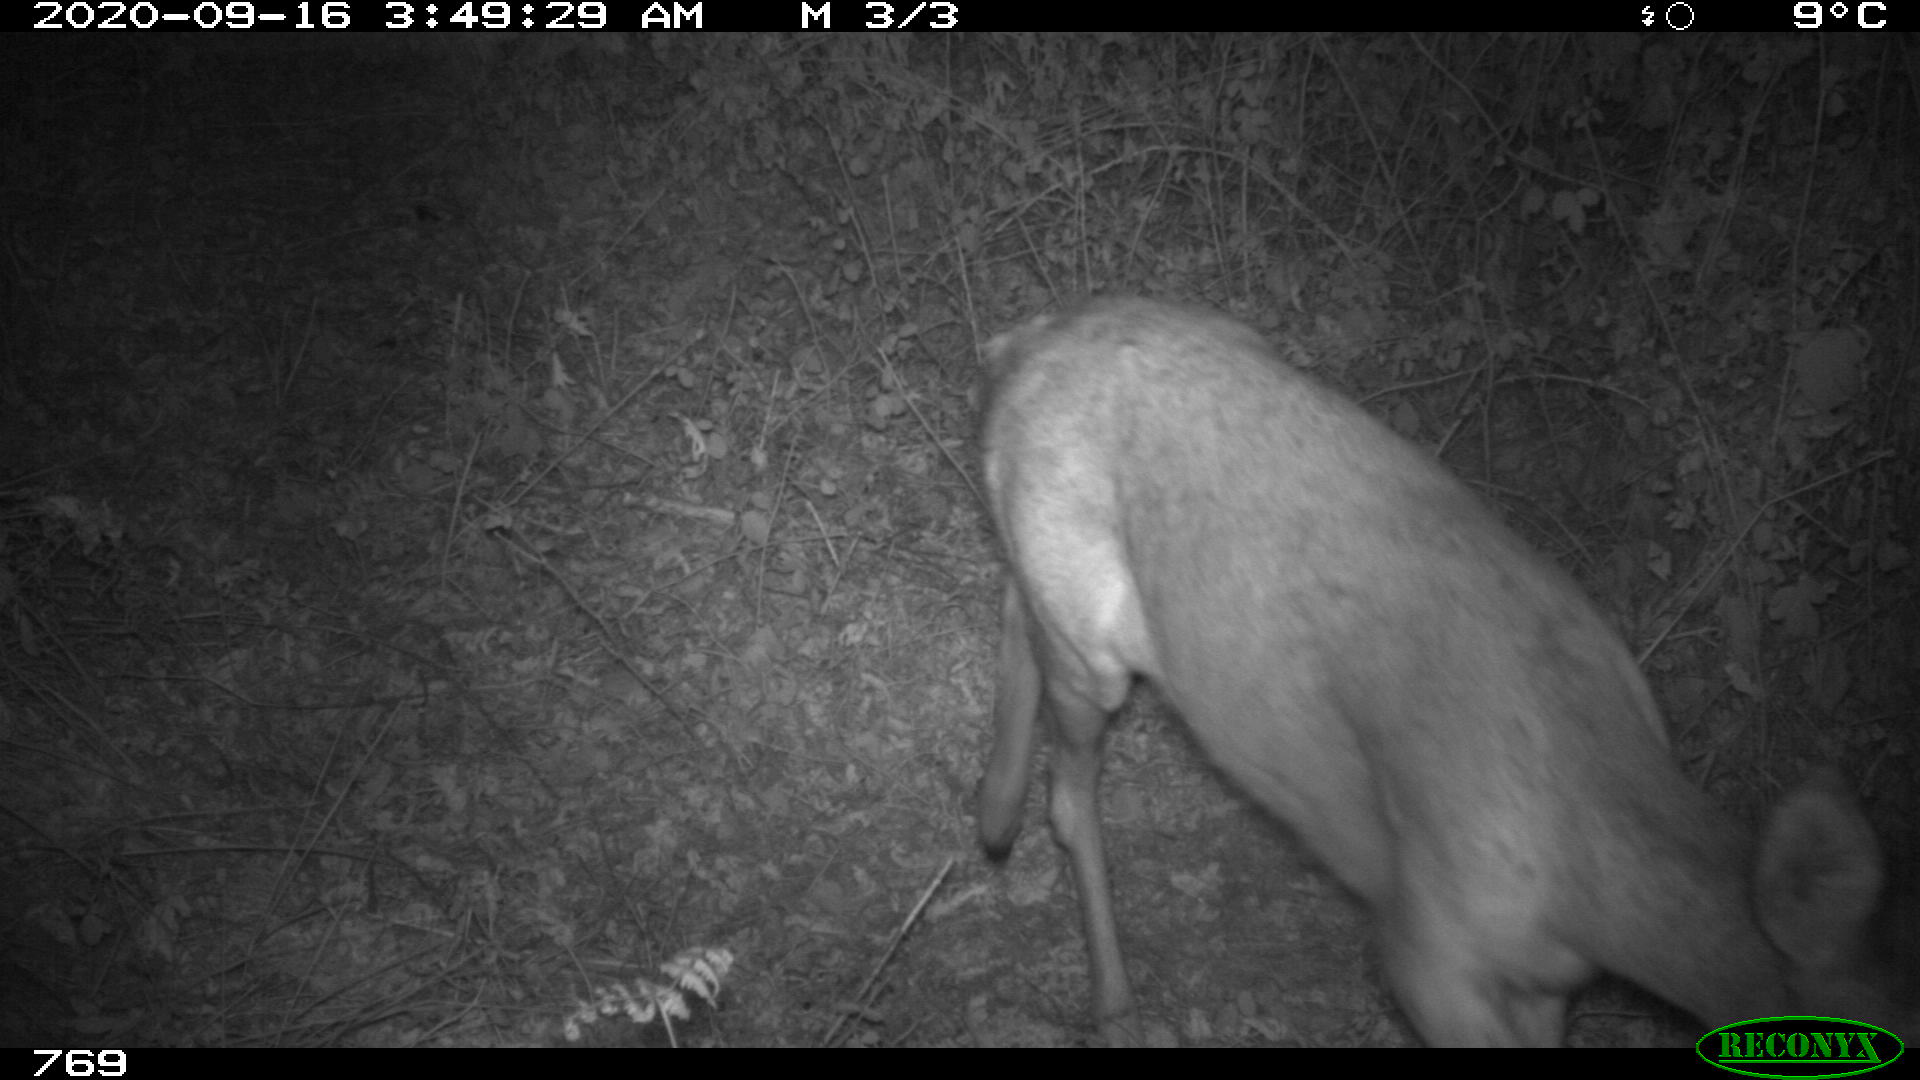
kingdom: Animalia
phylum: Chordata
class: Mammalia
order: Artiodactyla
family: Cervidae
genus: Capreolus
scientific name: Capreolus capreolus
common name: Western roe deer
